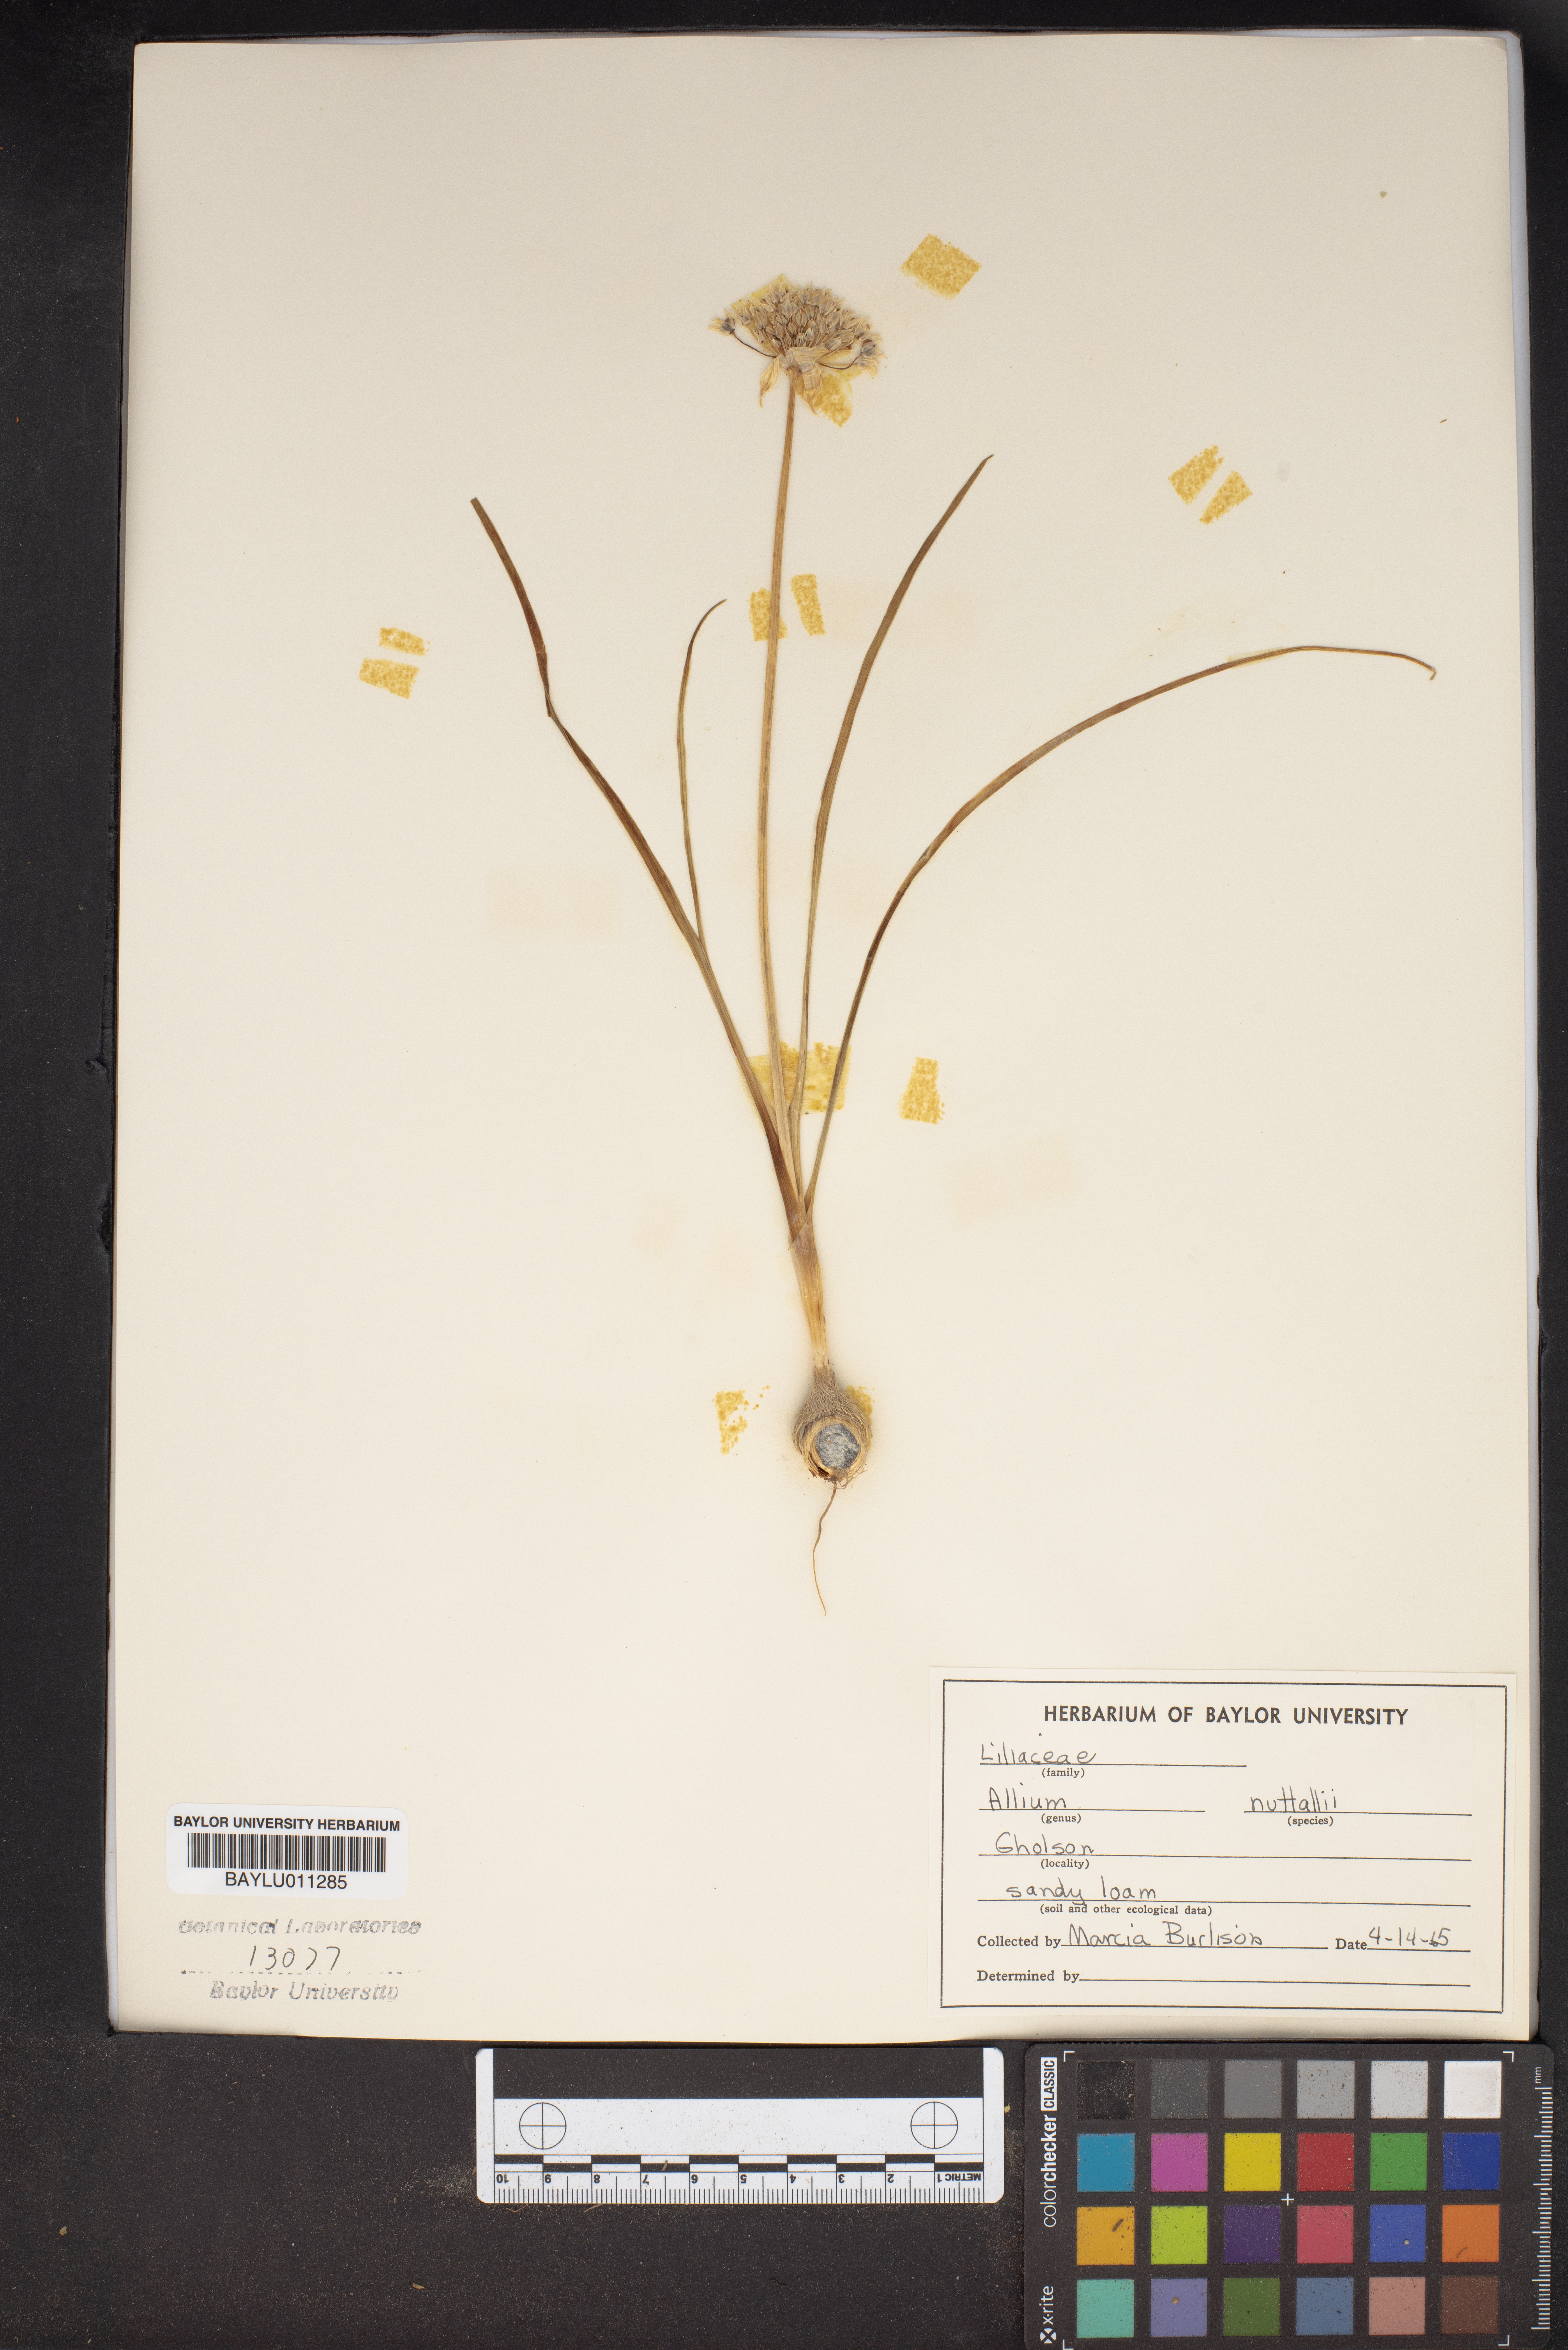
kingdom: Plantae
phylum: Tracheophyta
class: Liliopsida
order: Asparagales
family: Amaryllidaceae
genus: Allium
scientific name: Allium drummondii
